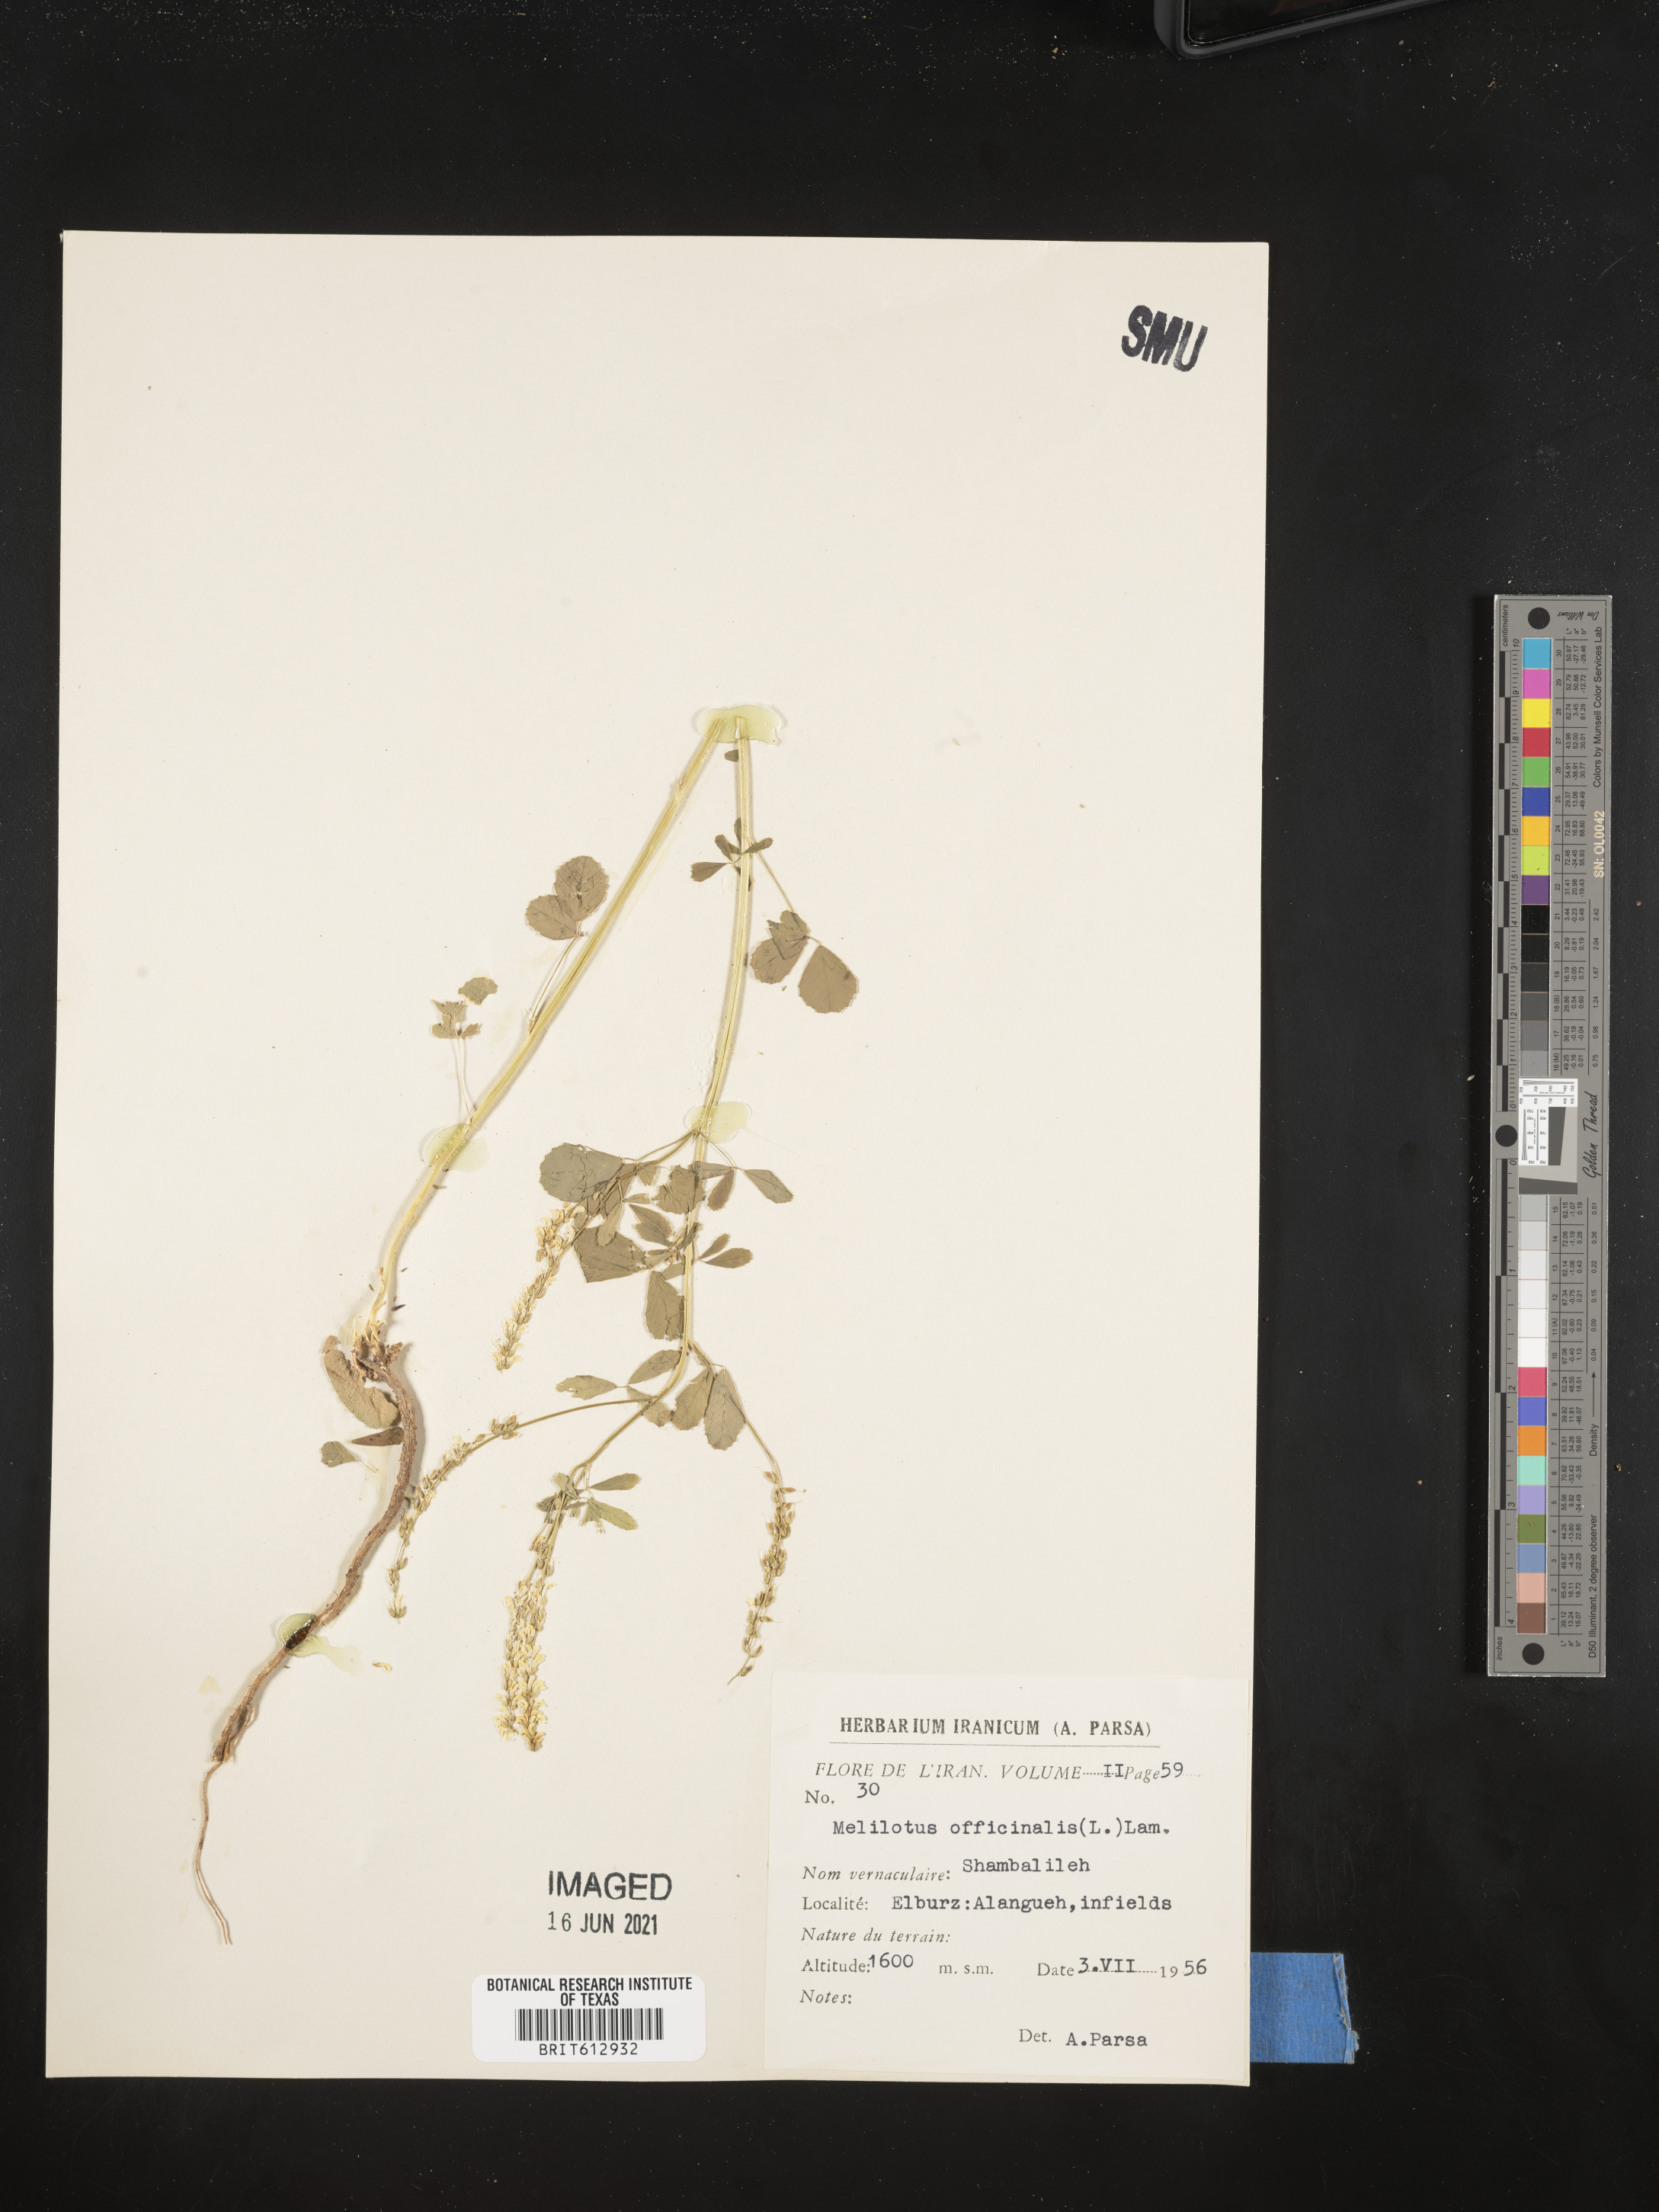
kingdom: Plantae
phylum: Tracheophyta
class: Magnoliopsida
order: Fabales
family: Fabaceae
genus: Melilotus
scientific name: Melilotus officinalis
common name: Sweetclover
